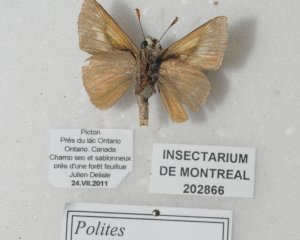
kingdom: Animalia
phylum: Arthropoda
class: Insecta
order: Lepidoptera
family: Hesperiidae
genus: Polites
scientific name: Polites
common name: Crossline Skipper
